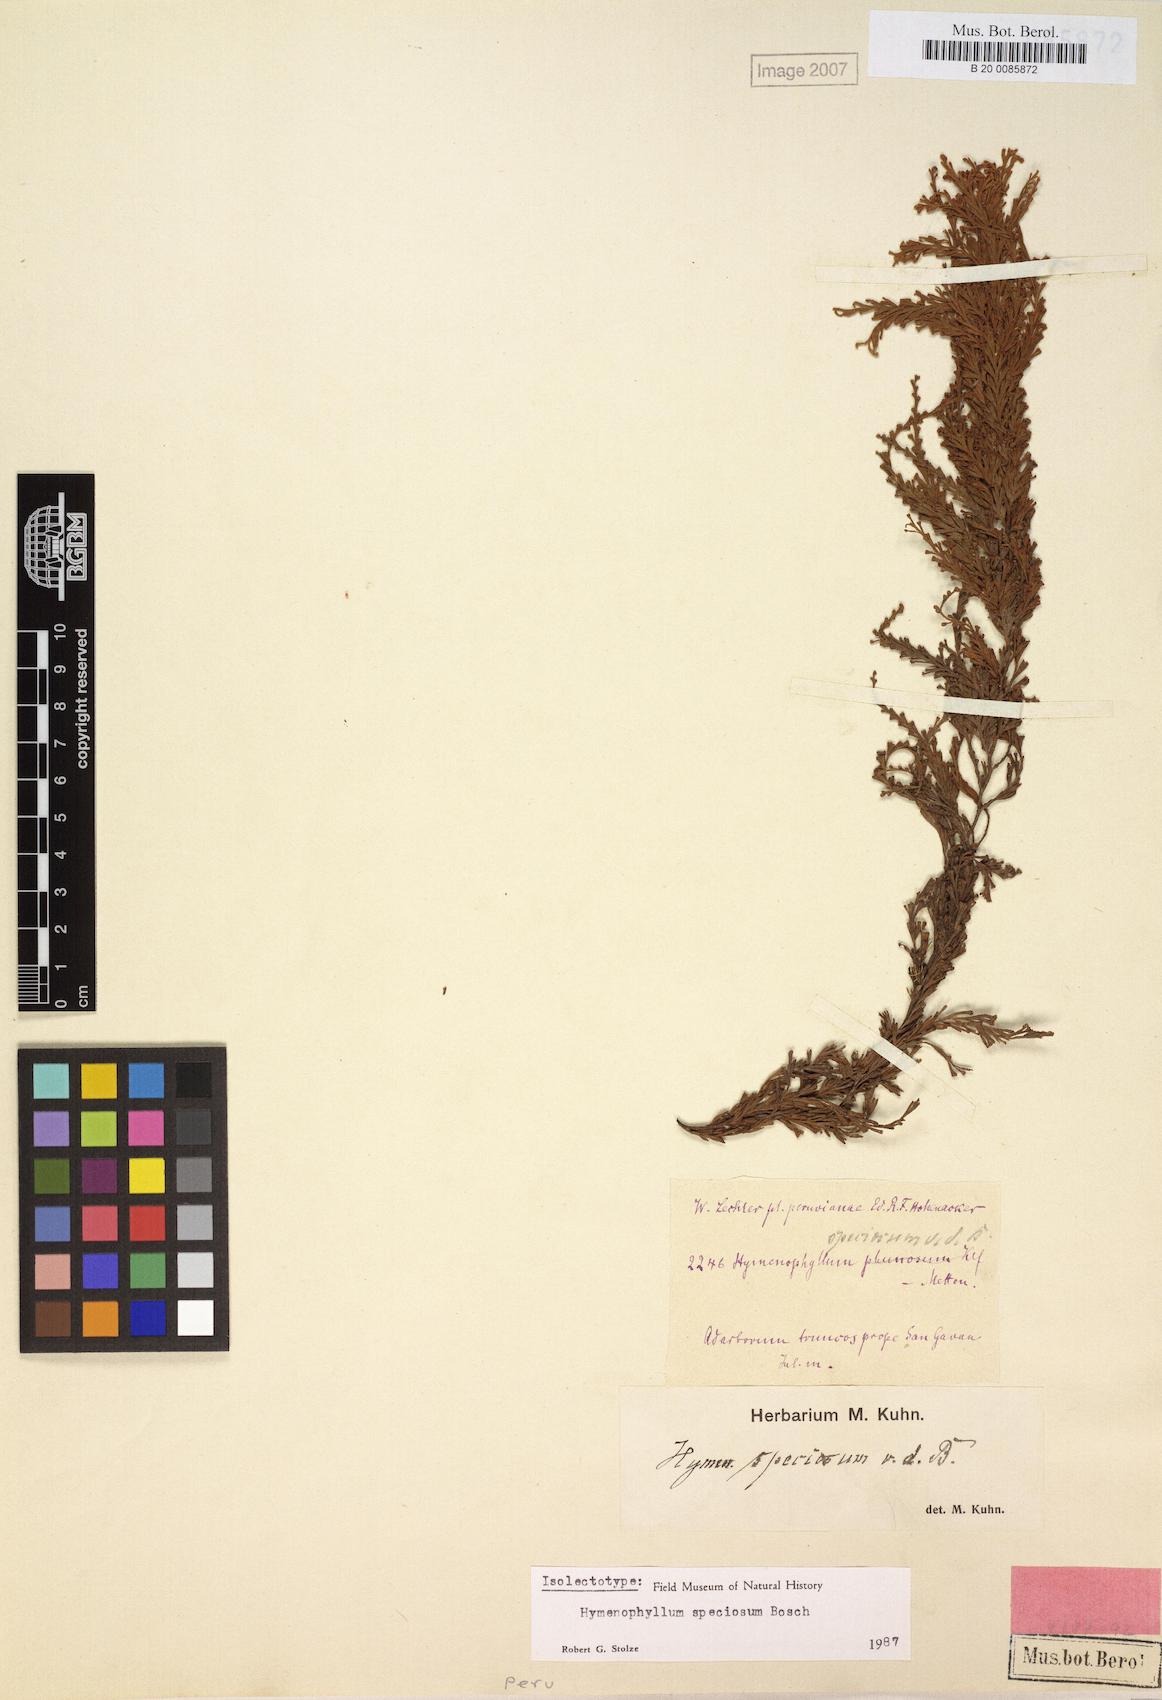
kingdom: Plantae
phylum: Tracheophyta
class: Polypodiopsida
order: Hymenophyllales
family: Hymenophyllaceae
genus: Hymenophyllum
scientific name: Hymenophyllum sericeum
